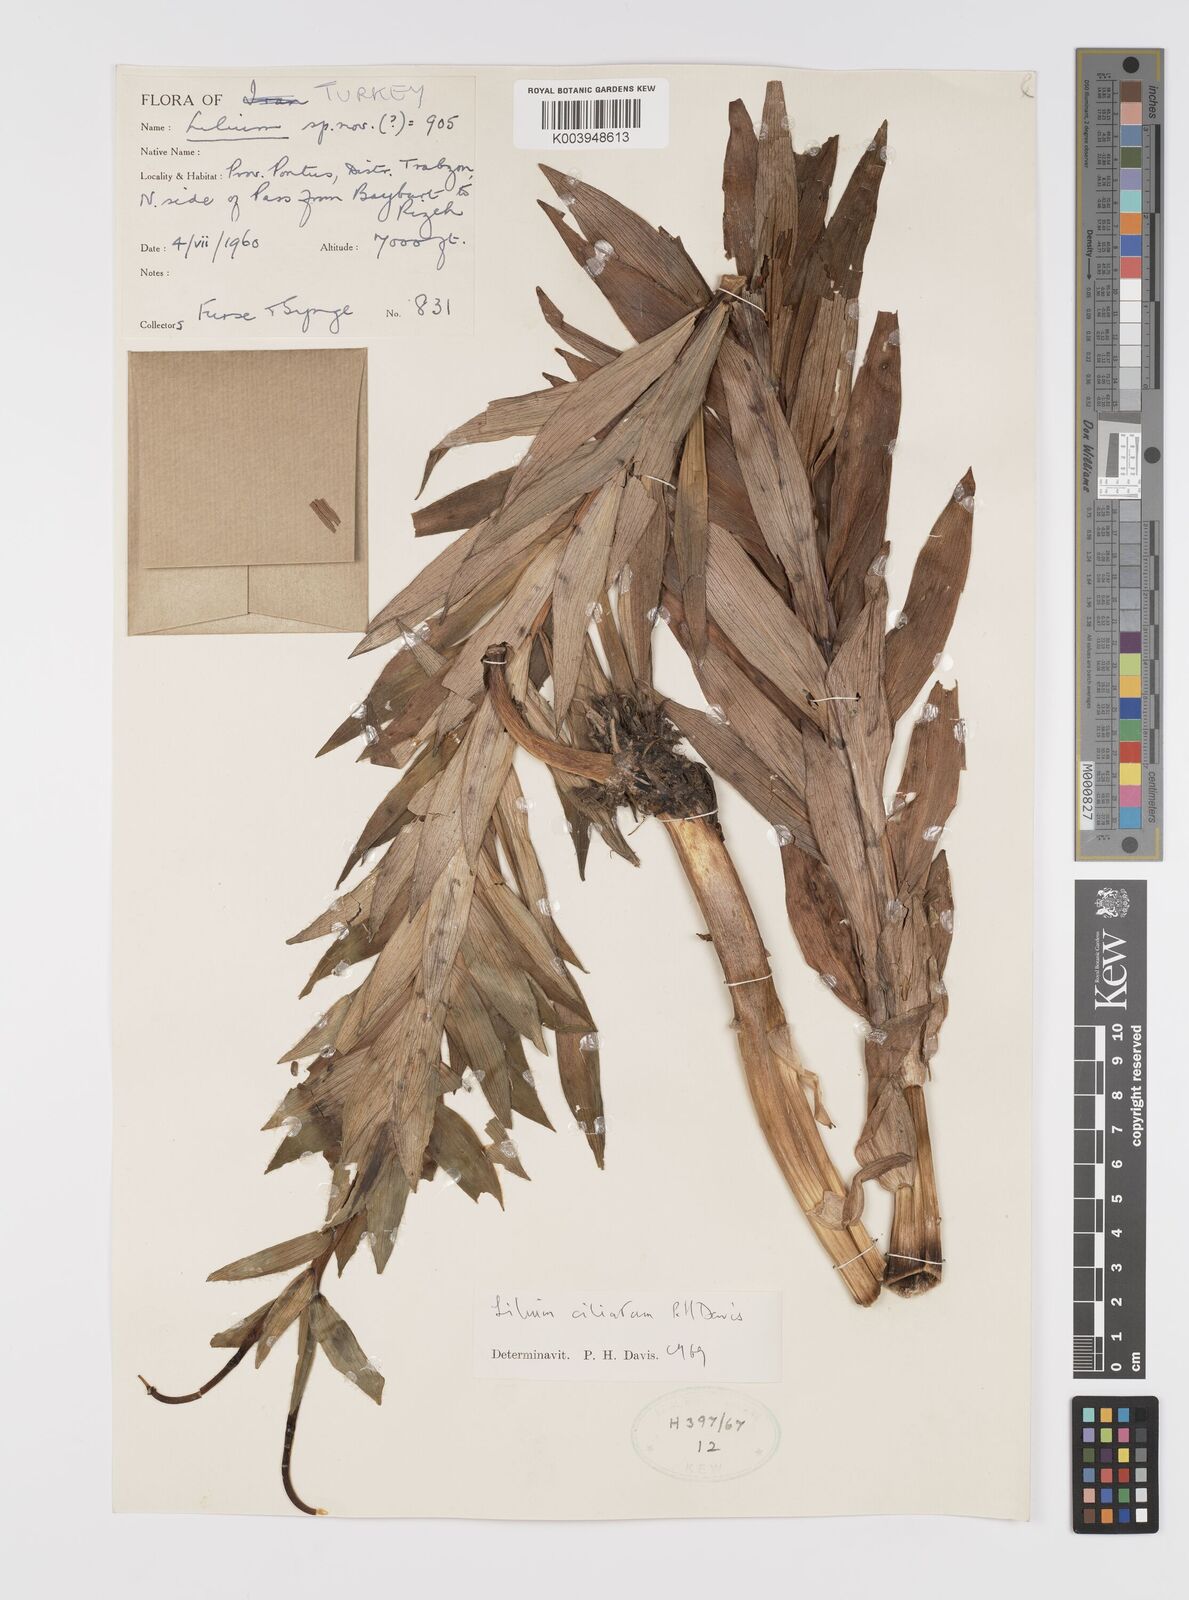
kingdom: Plantae
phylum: Tracheophyta
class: Liliopsida
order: Liliales
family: Liliaceae
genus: Lilium
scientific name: Lilium ciliatum
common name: Ciliate lily
